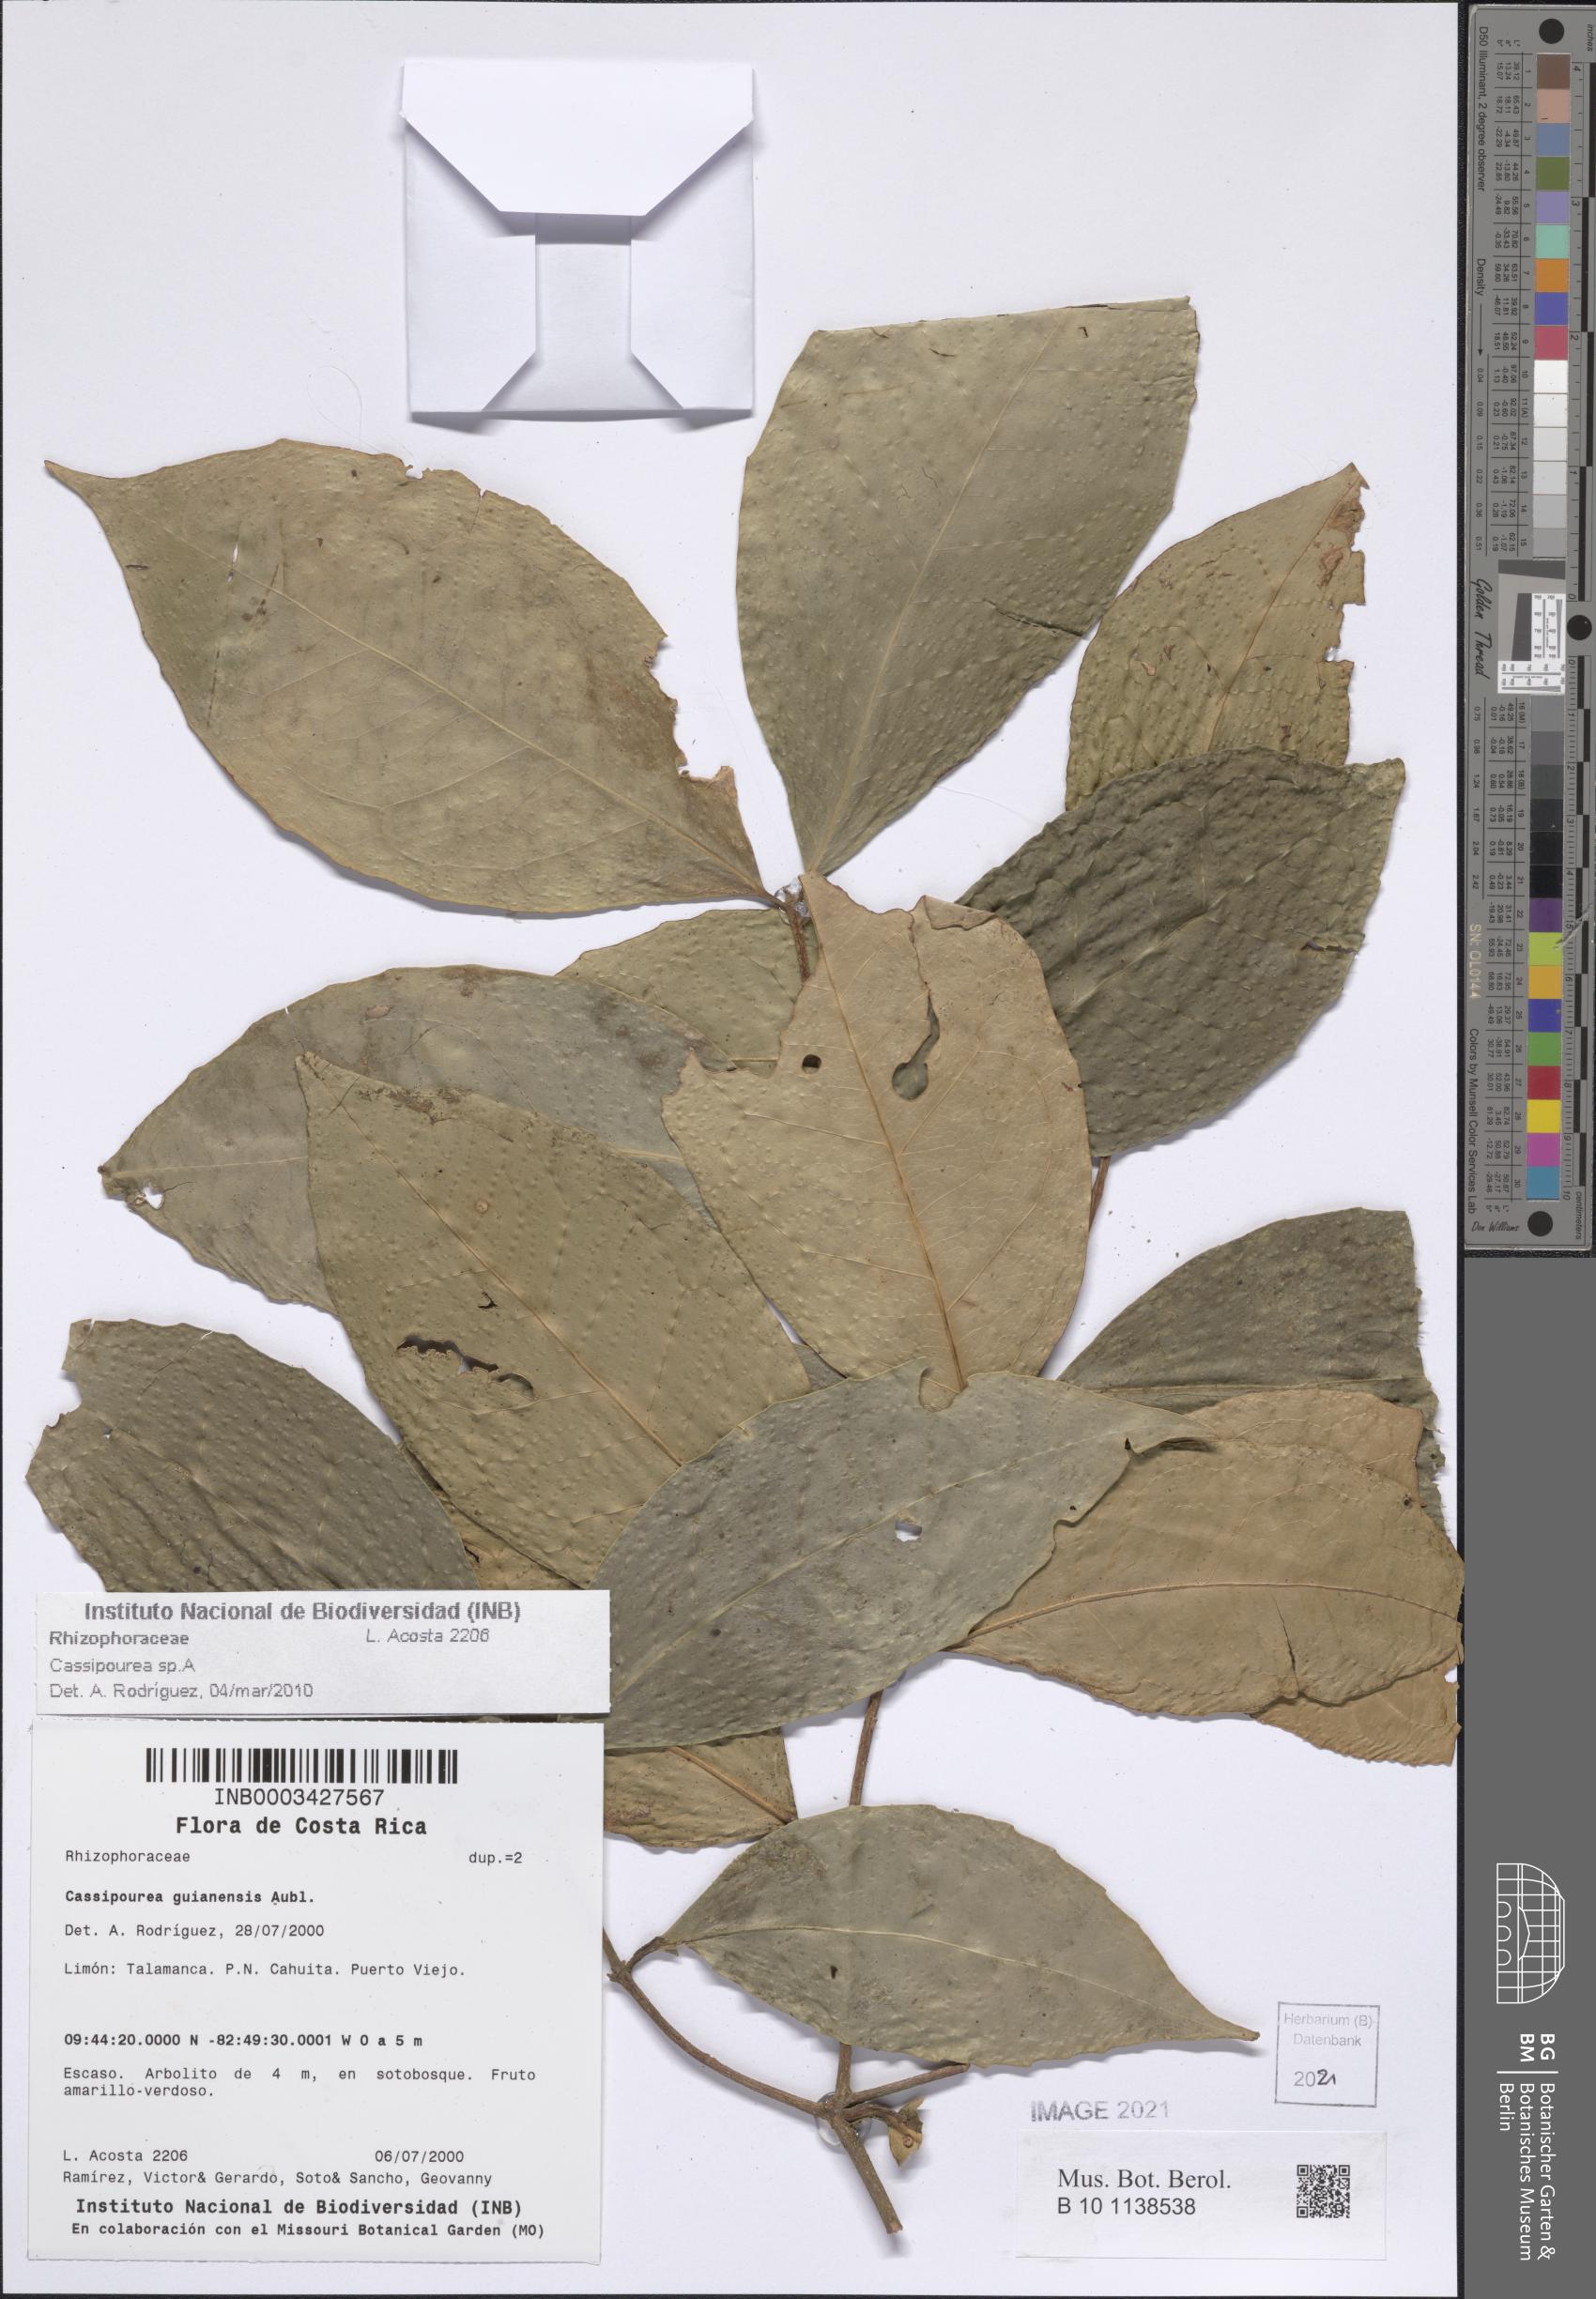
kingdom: Plantae
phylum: Tracheophyta
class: Magnoliopsida
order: Malpighiales
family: Rhizophoraceae
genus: Cassipourea
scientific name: Cassipourea
